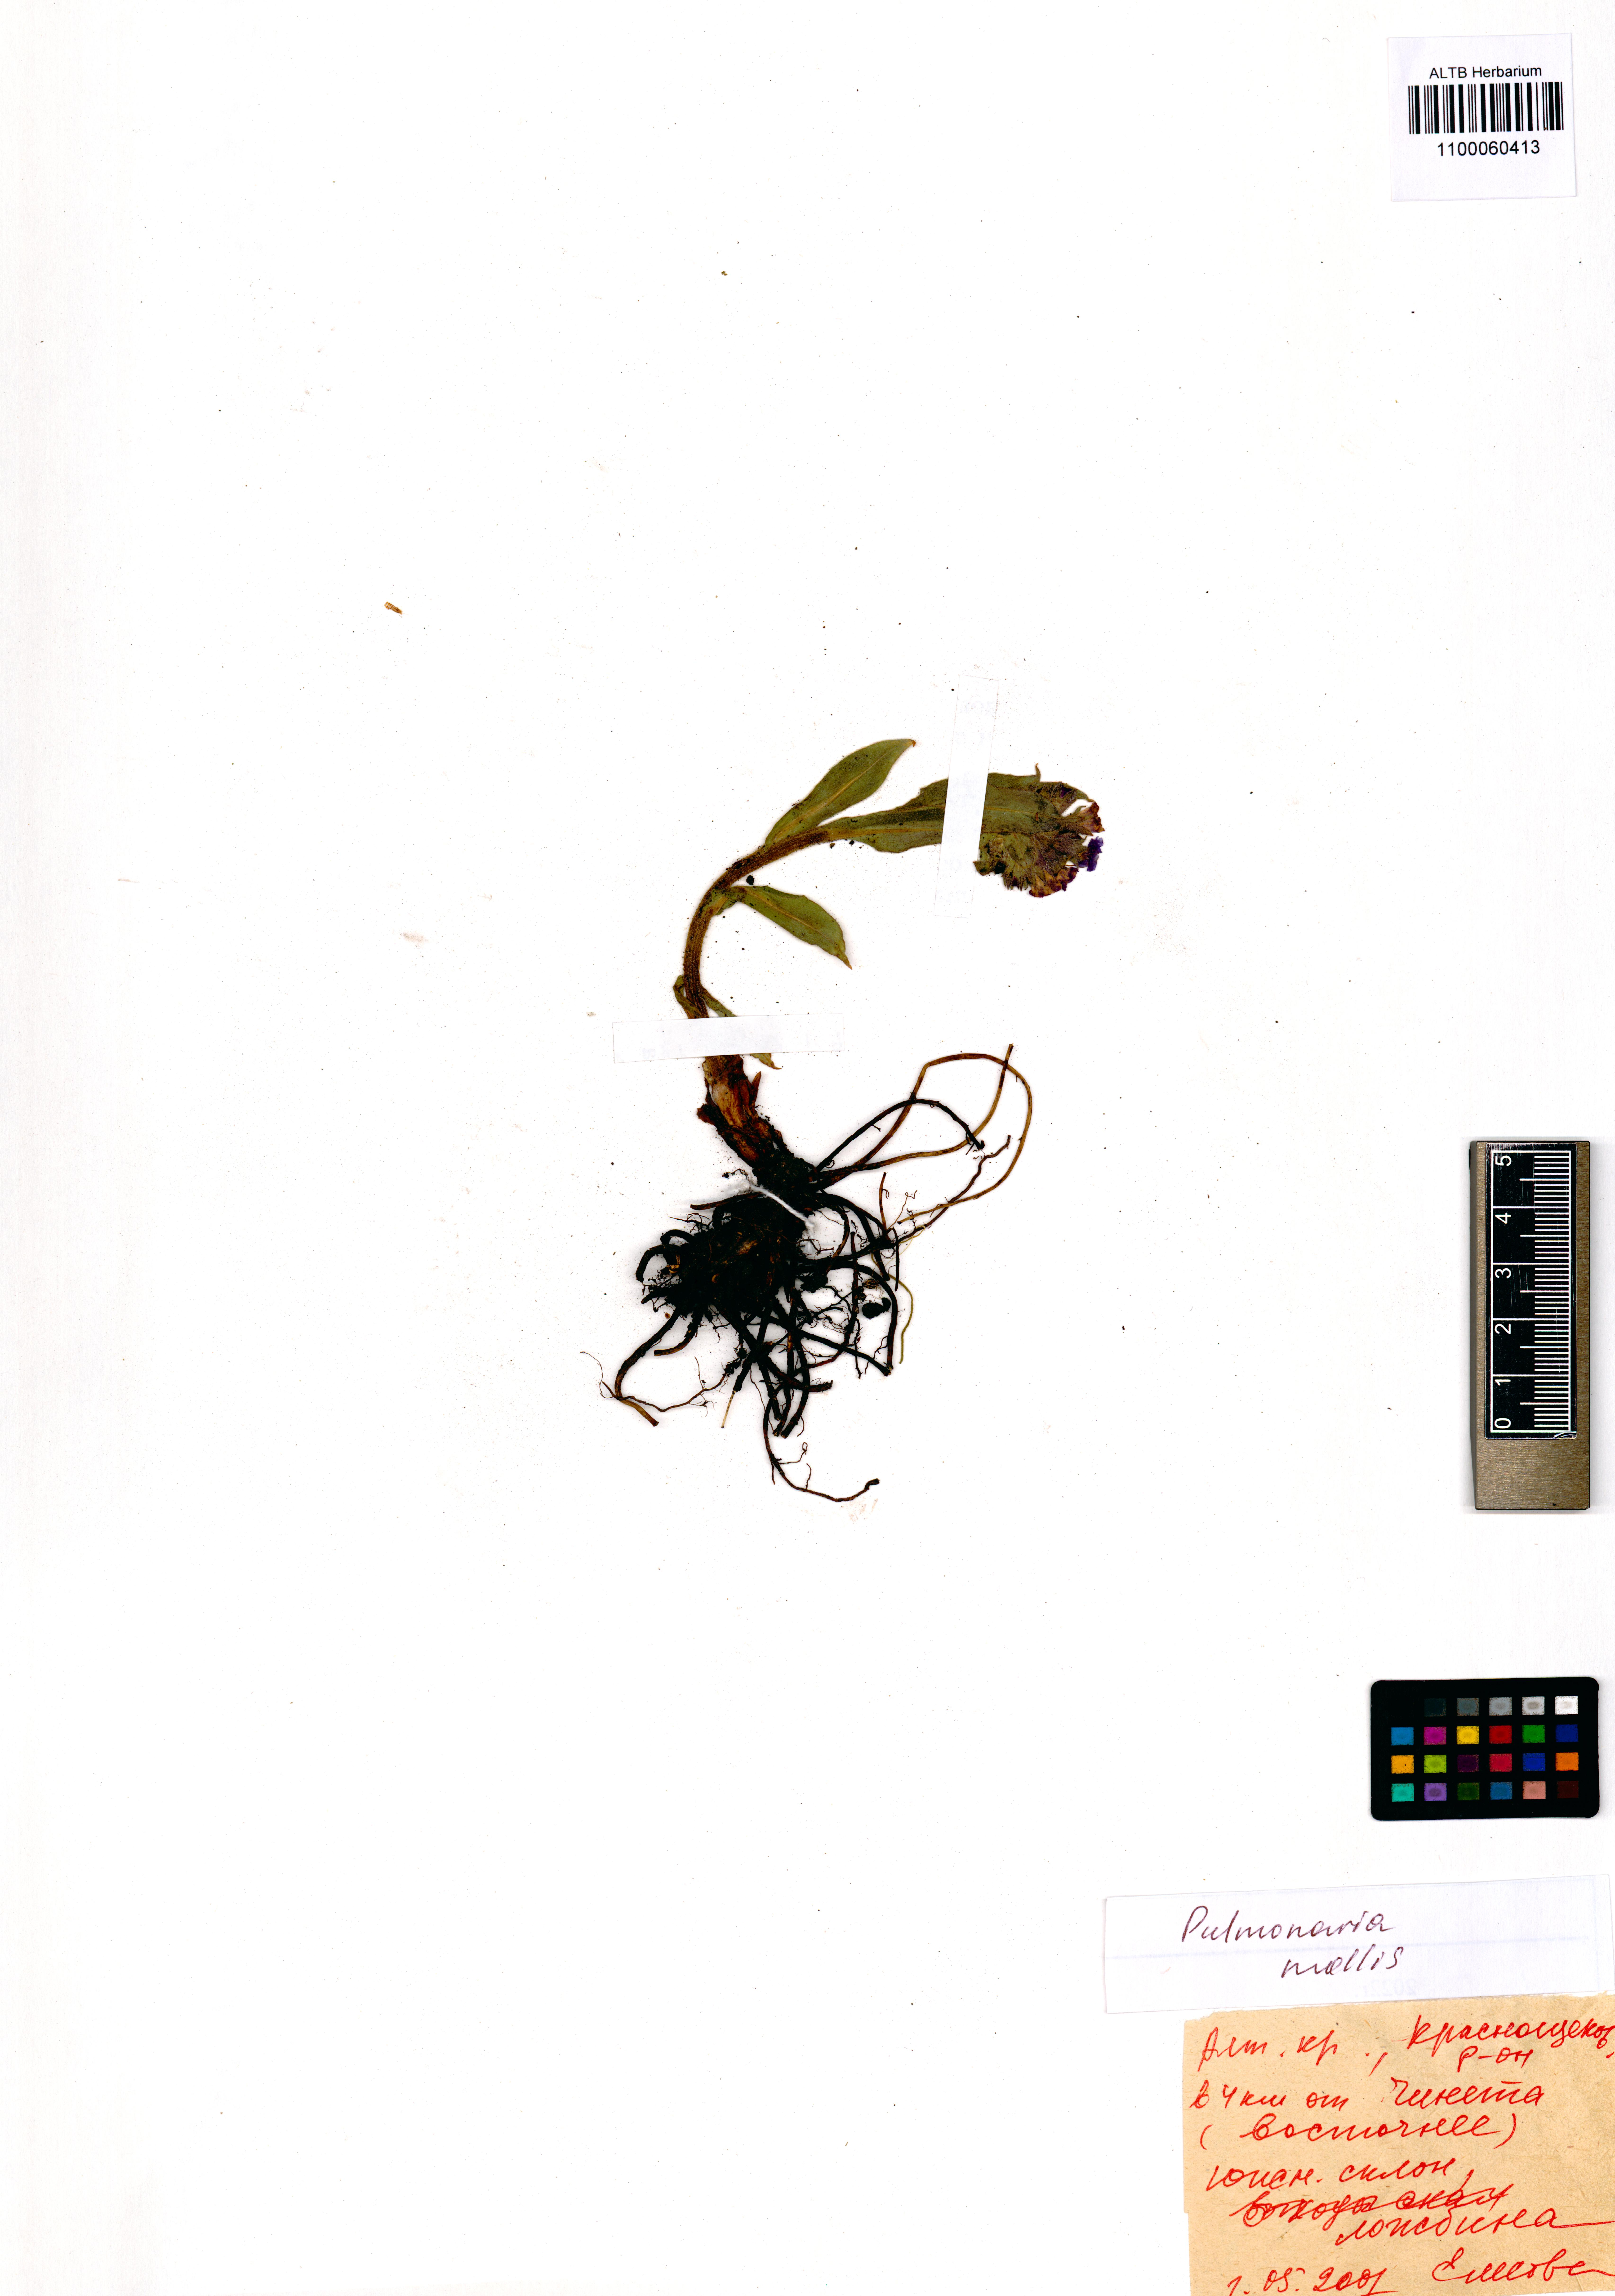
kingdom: Plantae
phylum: Tracheophyta
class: Magnoliopsida
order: Boraginales
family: Boraginaceae
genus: Pulmonaria
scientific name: Pulmonaria mollis
